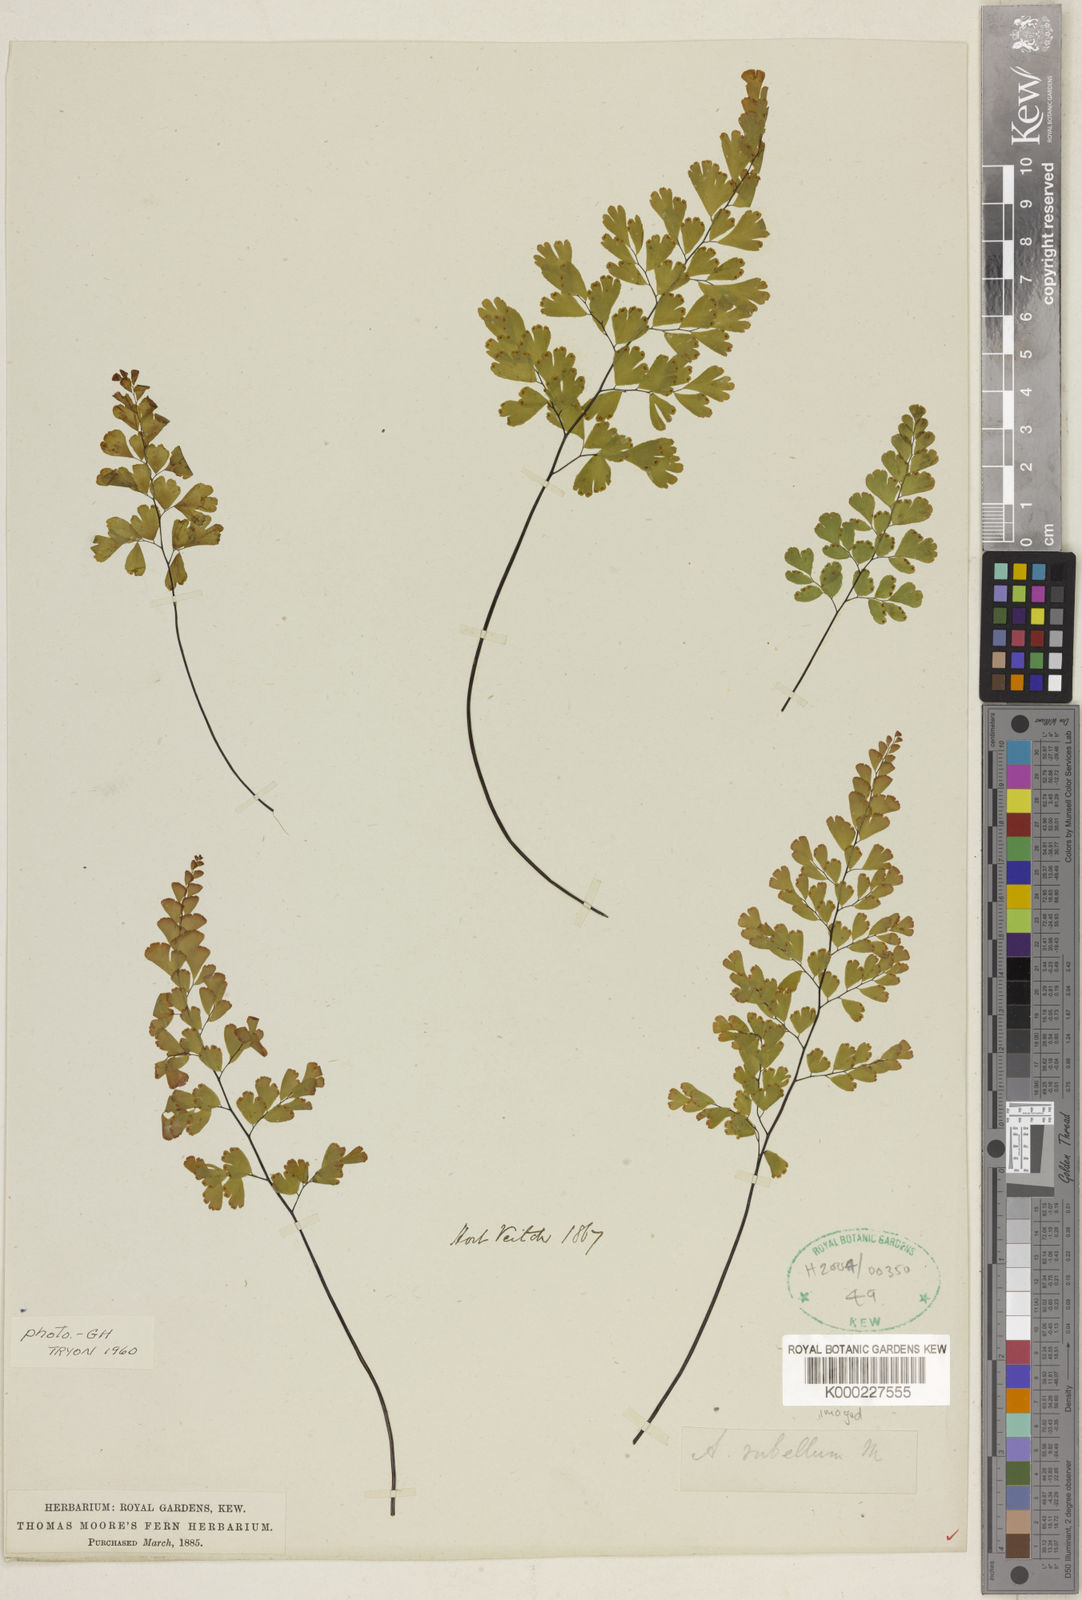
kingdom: Plantae
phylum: Tracheophyta
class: Polypodiopsida
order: Polypodiales
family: Pteridaceae
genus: Adiantum
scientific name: Adiantum raddianum
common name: Delta maidenhair fern
